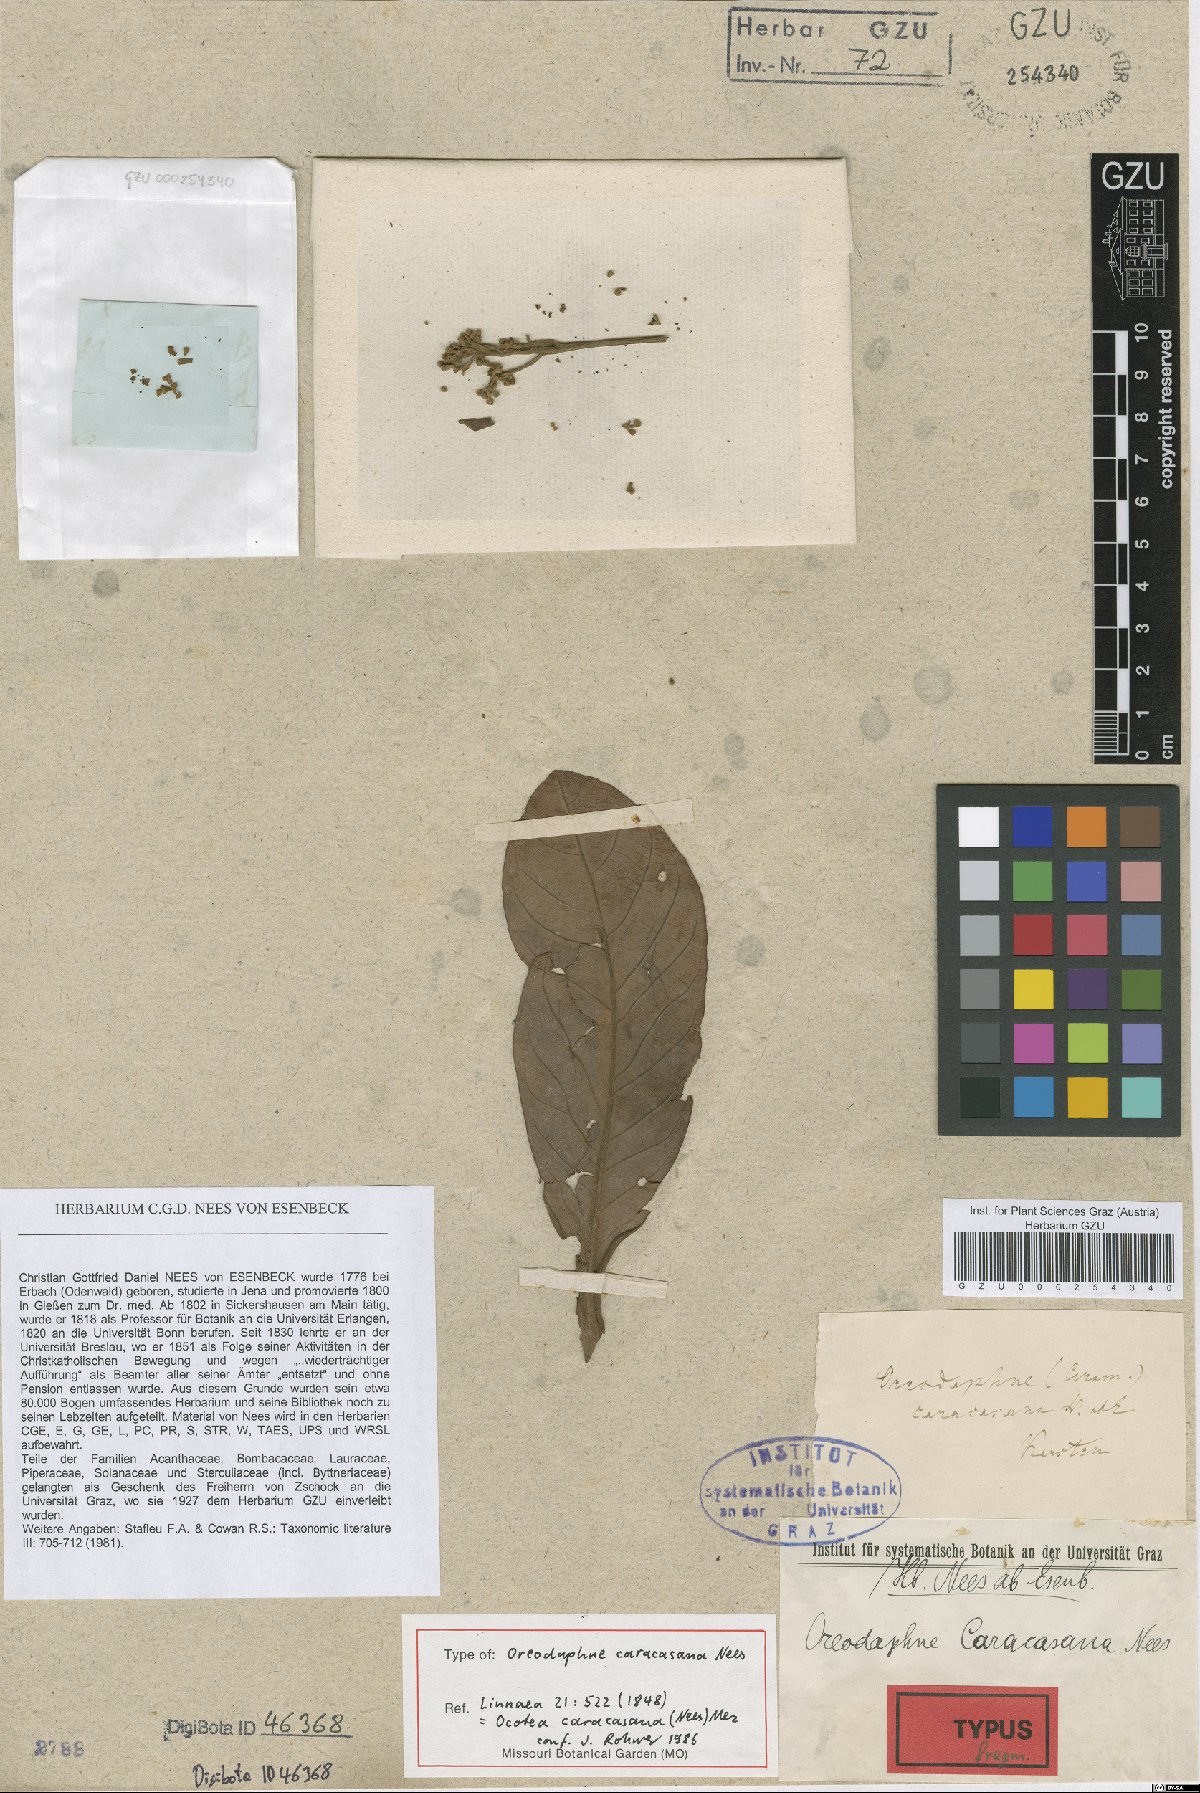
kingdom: Plantae
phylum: Tracheophyta
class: Magnoliopsida
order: Laurales
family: Lauraceae
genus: Ocotea
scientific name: Ocotea caracasana
